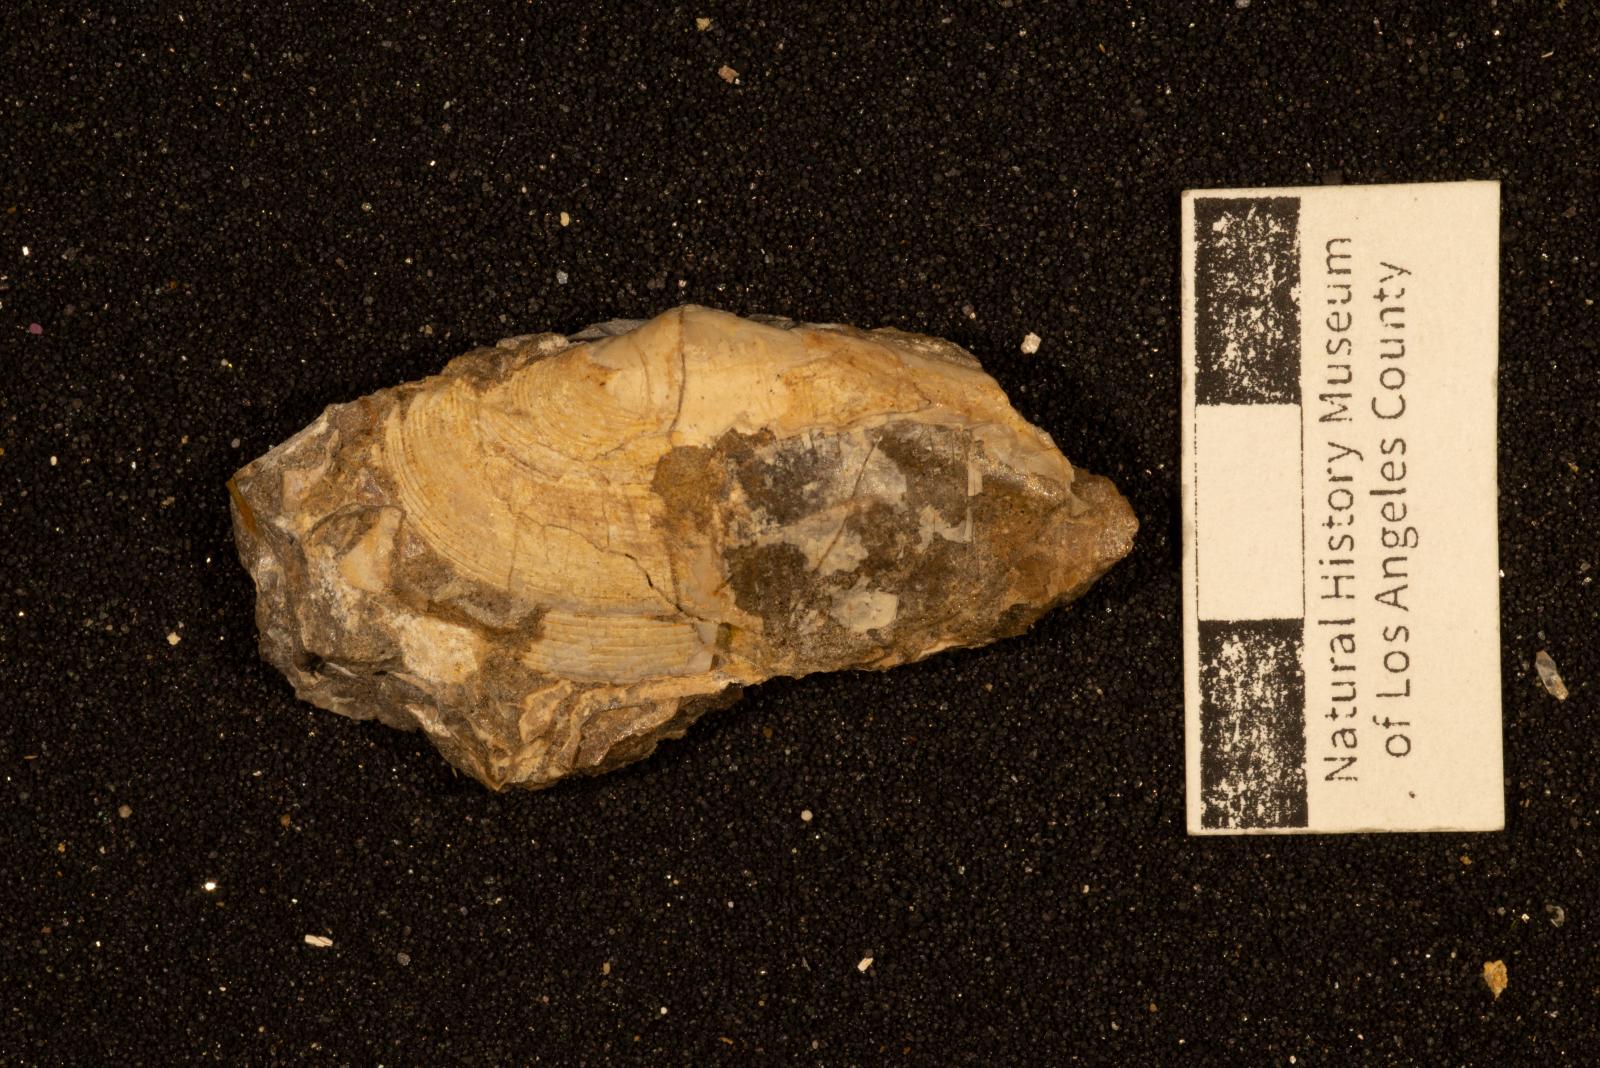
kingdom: Animalia
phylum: Mollusca
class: Bivalvia
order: Cardiida
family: Tellinidae
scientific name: Tellinidae
